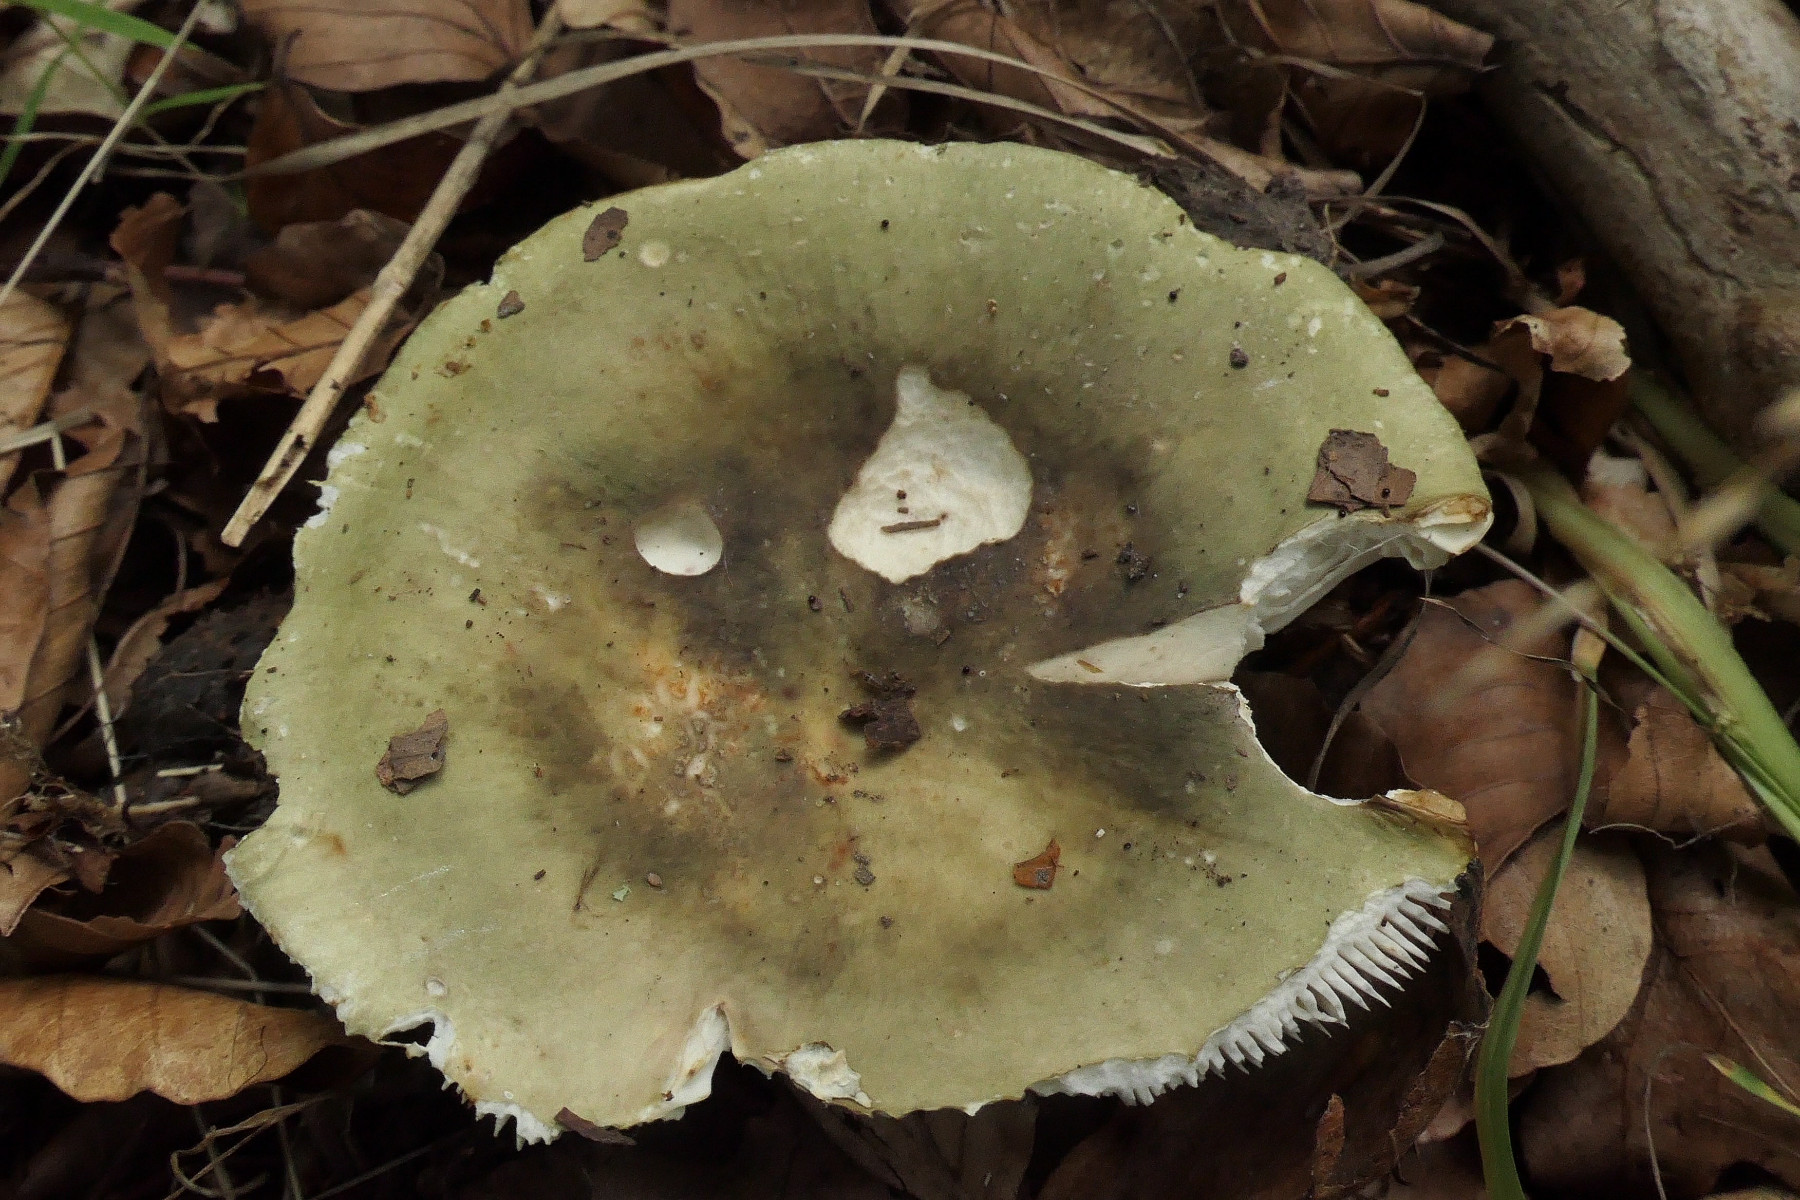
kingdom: Fungi
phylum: Basidiomycota
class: Agaricomycetes
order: Russulales
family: Russulaceae
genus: Russula
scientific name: Russula heterophylla
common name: gaffelbladet skørhat
